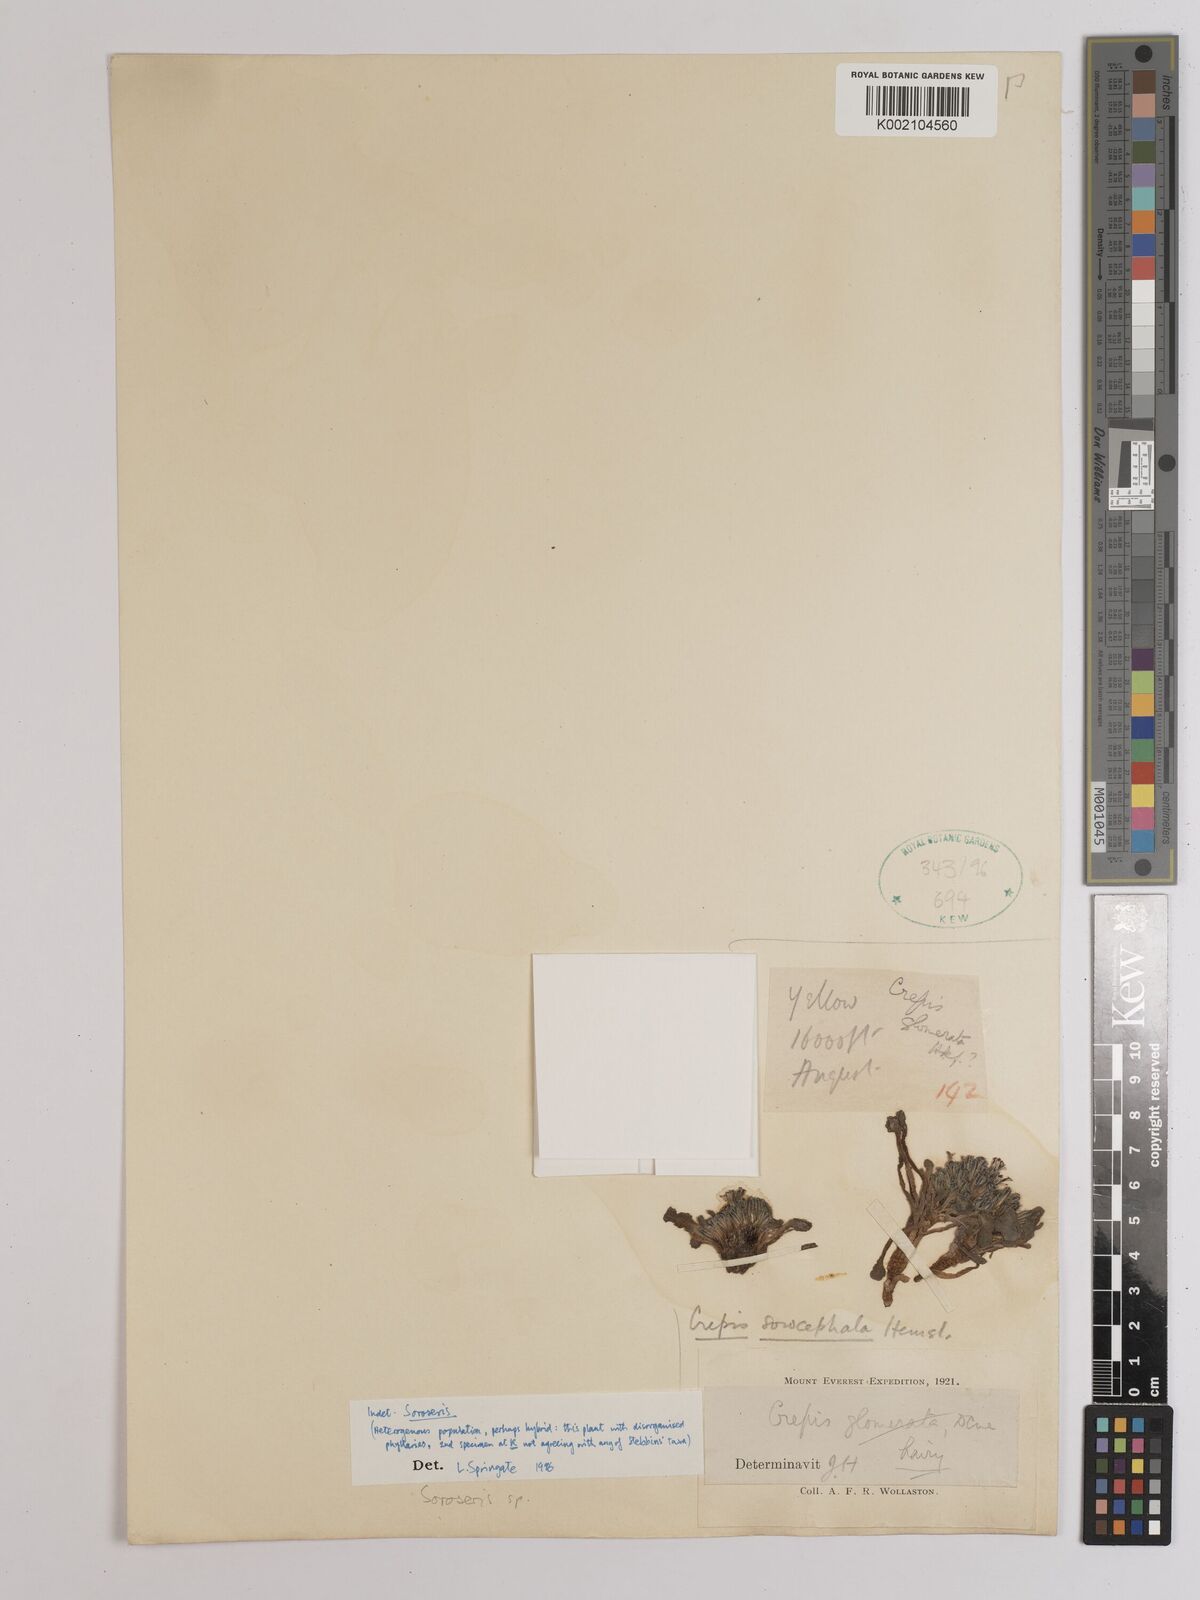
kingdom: Plantae
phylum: Tracheophyta
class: Magnoliopsida
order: Asterales
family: Asteraceae
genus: Soroseris
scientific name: Soroseris
